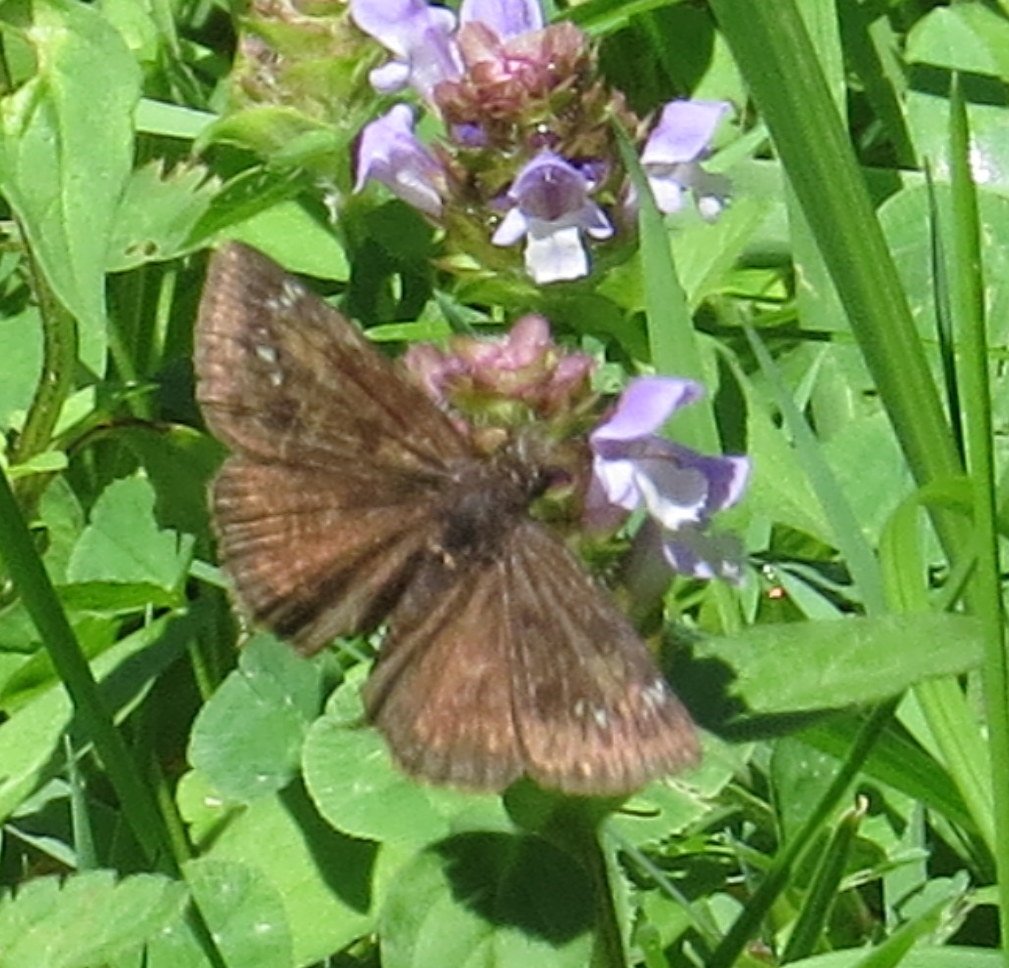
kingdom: Animalia
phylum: Arthropoda
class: Insecta
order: Lepidoptera
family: Hesperiidae
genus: Gesta
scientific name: Gesta
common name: Wild Indigo Duskywing
